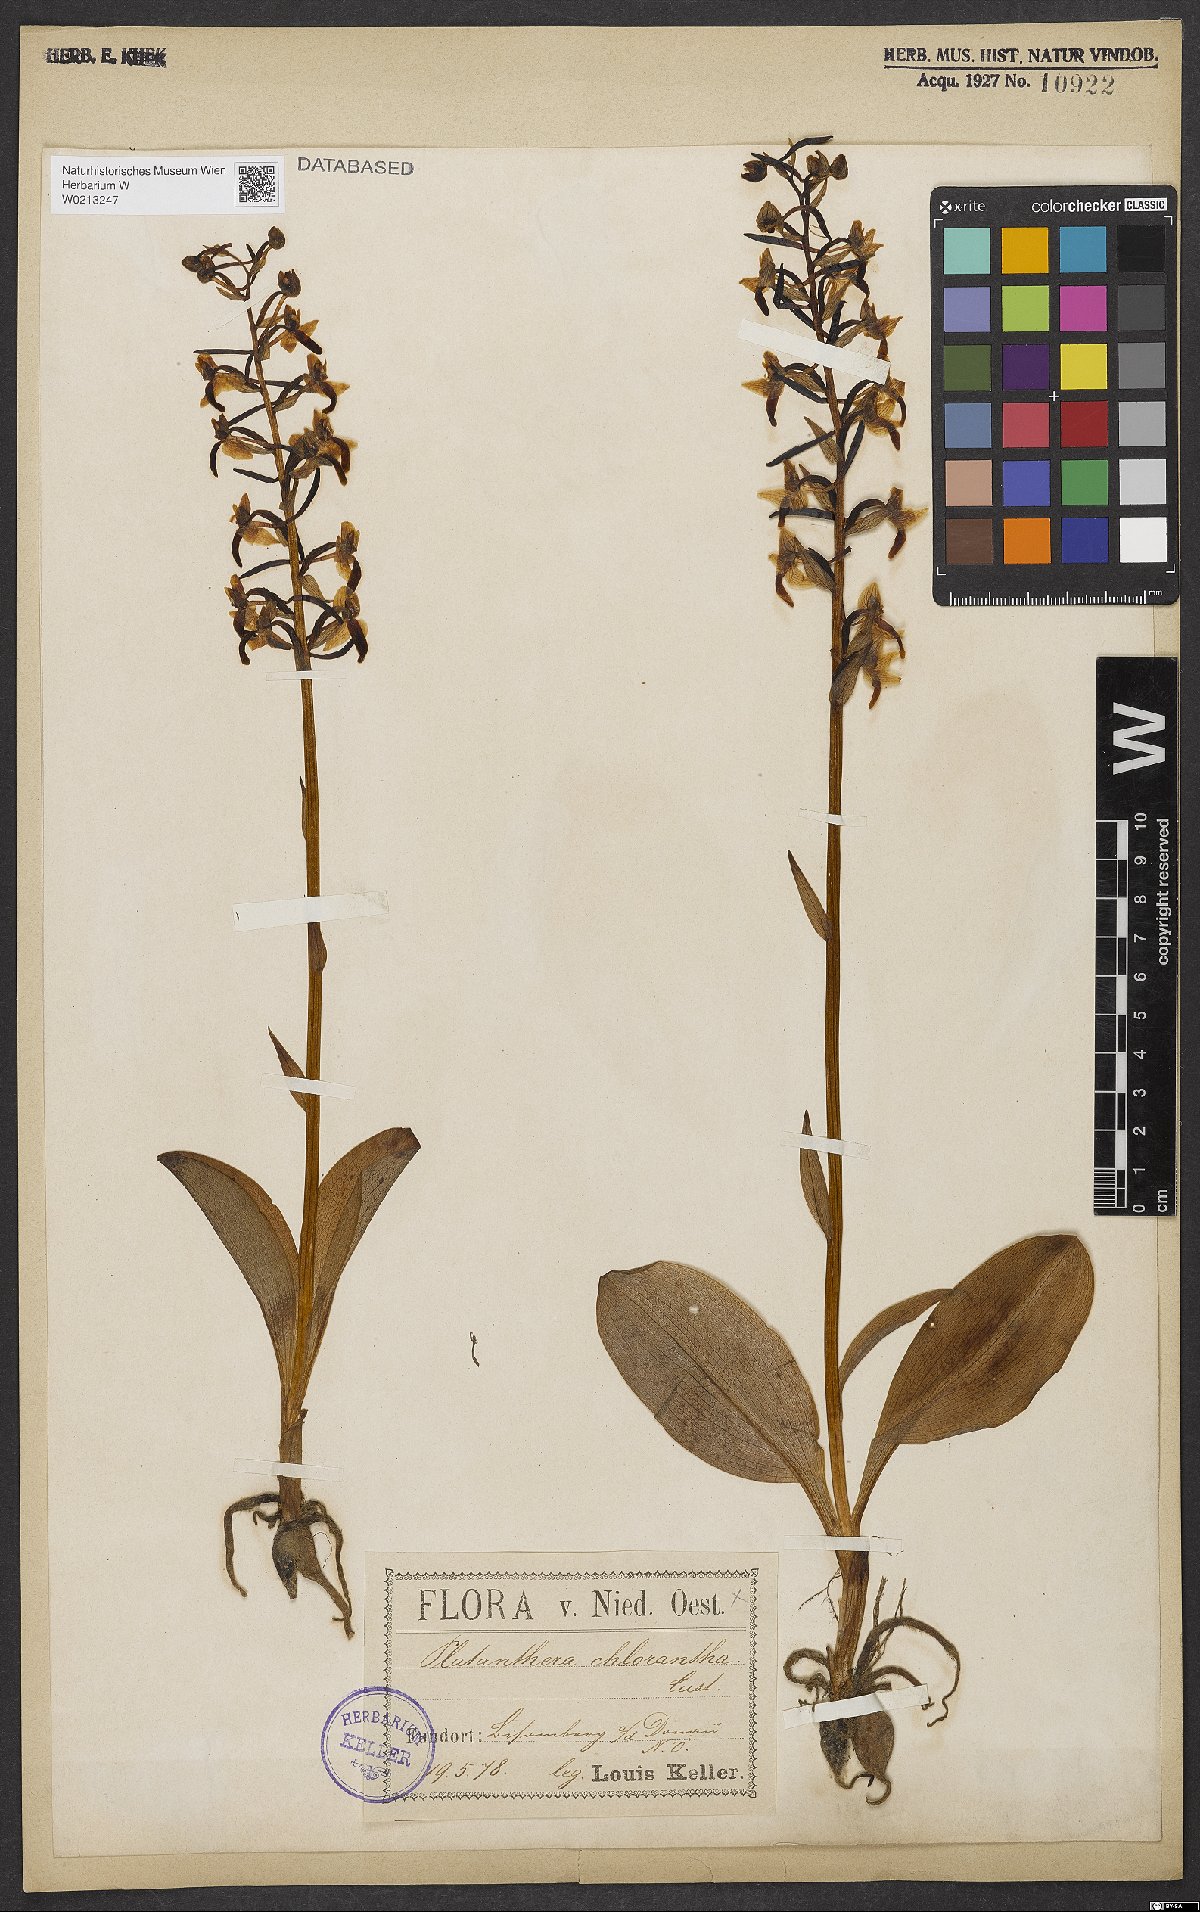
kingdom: Plantae
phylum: Tracheophyta
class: Liliopsida
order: Asparagales
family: Orchidaceae
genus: Platanthera
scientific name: Platanthera chlorantha
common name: Greater butterfly-orchid
